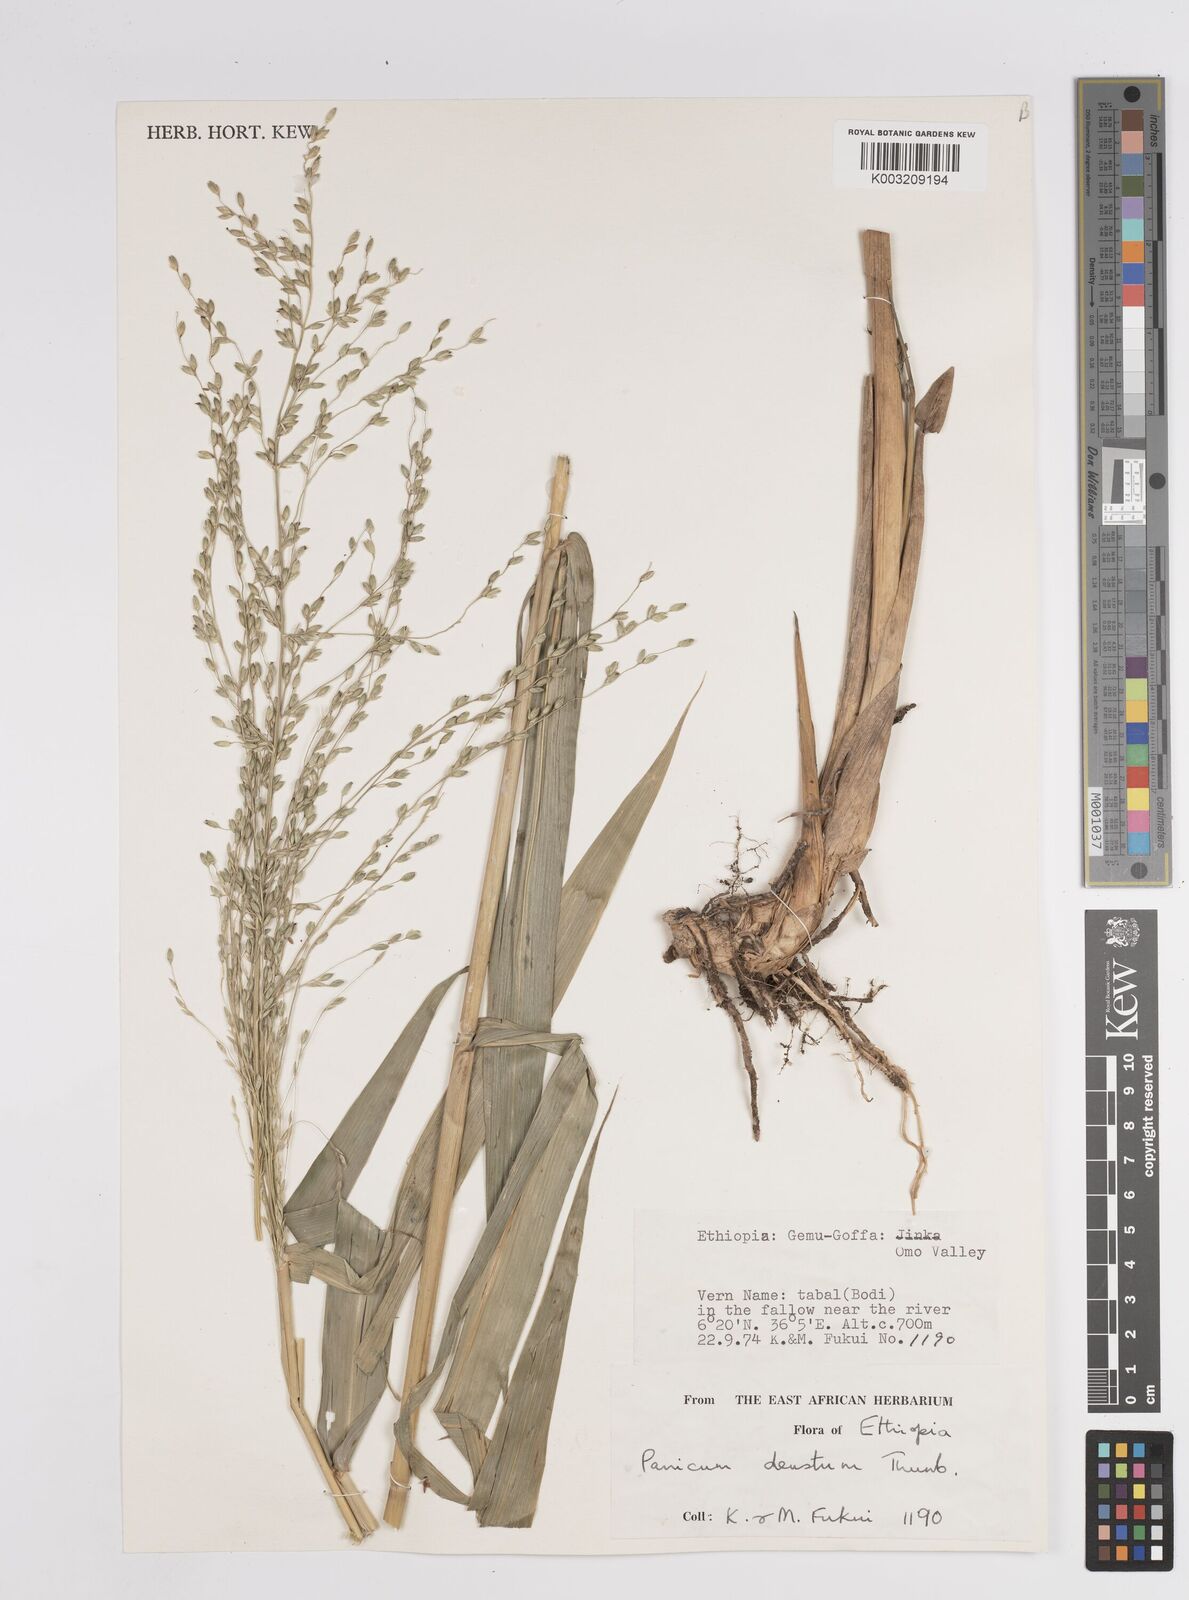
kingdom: Plantae
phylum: Tracheophyta
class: Liliopsida
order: Poales
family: Poaceae
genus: Panicum
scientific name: Panicum
